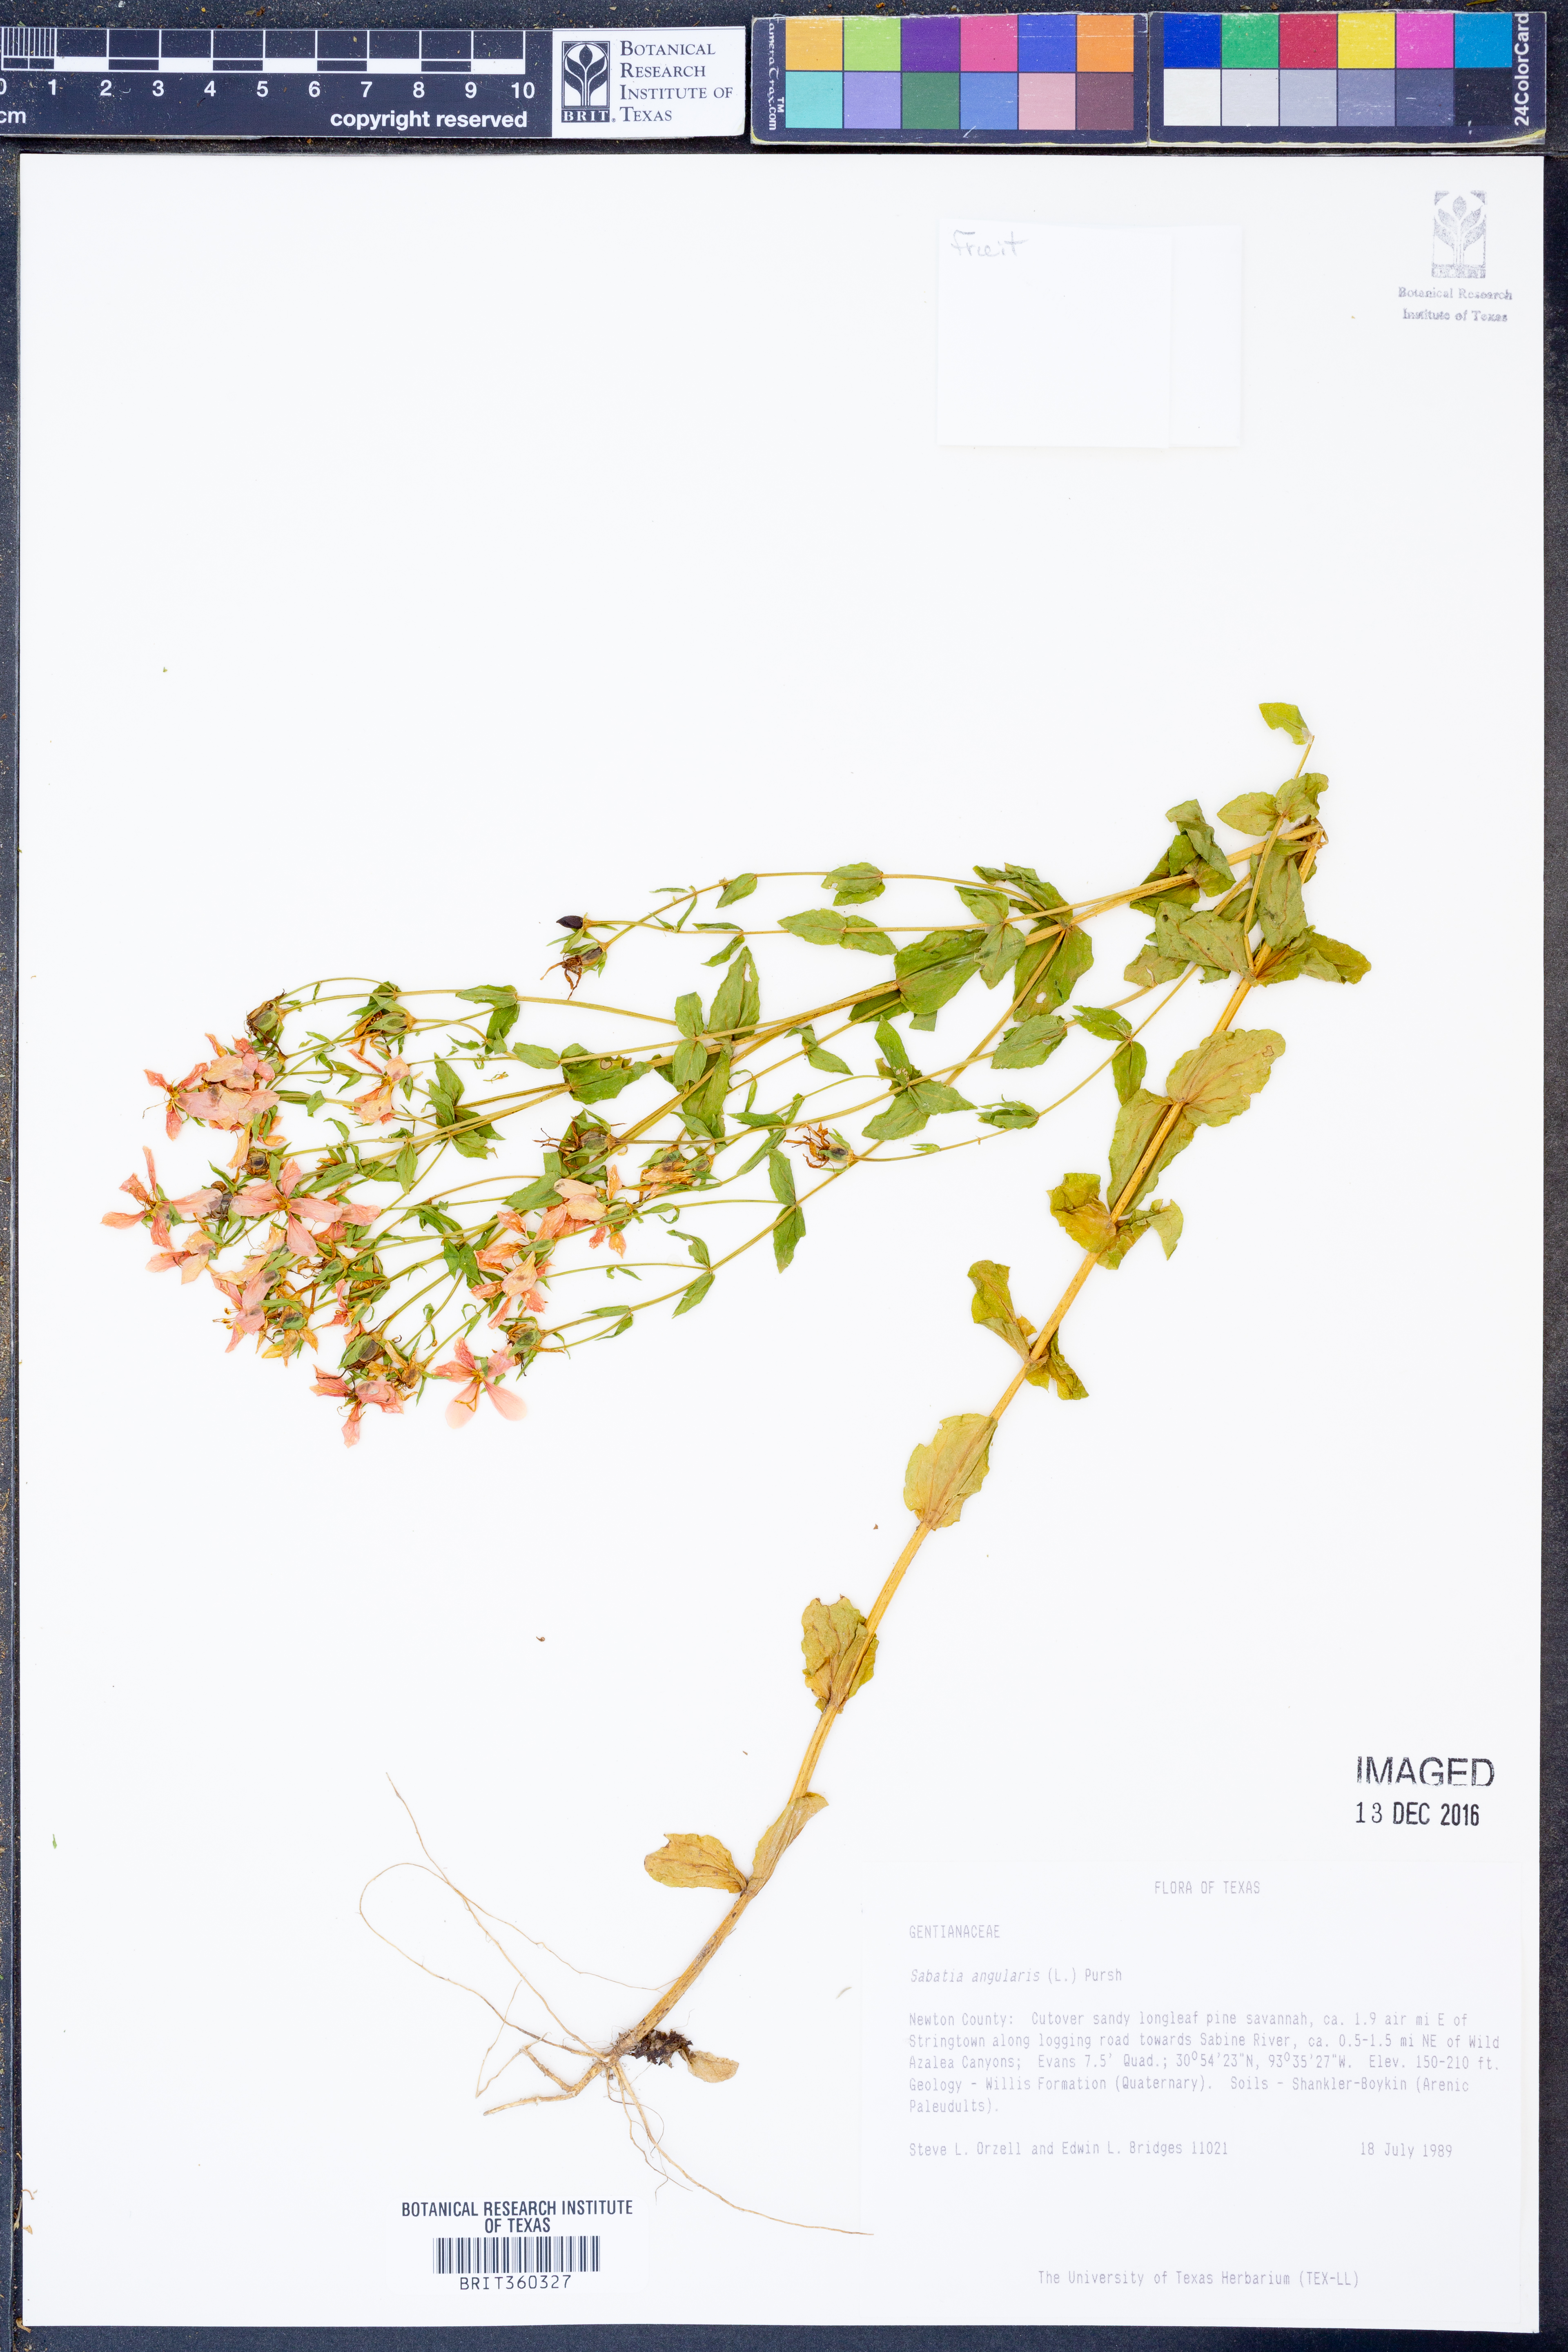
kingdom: Plantae
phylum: Tracheophyta
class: Magnoliopsida
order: Gentianales
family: Gentianaceae
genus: Sabatia
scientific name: Sabatia angularis
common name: Rose-pink
